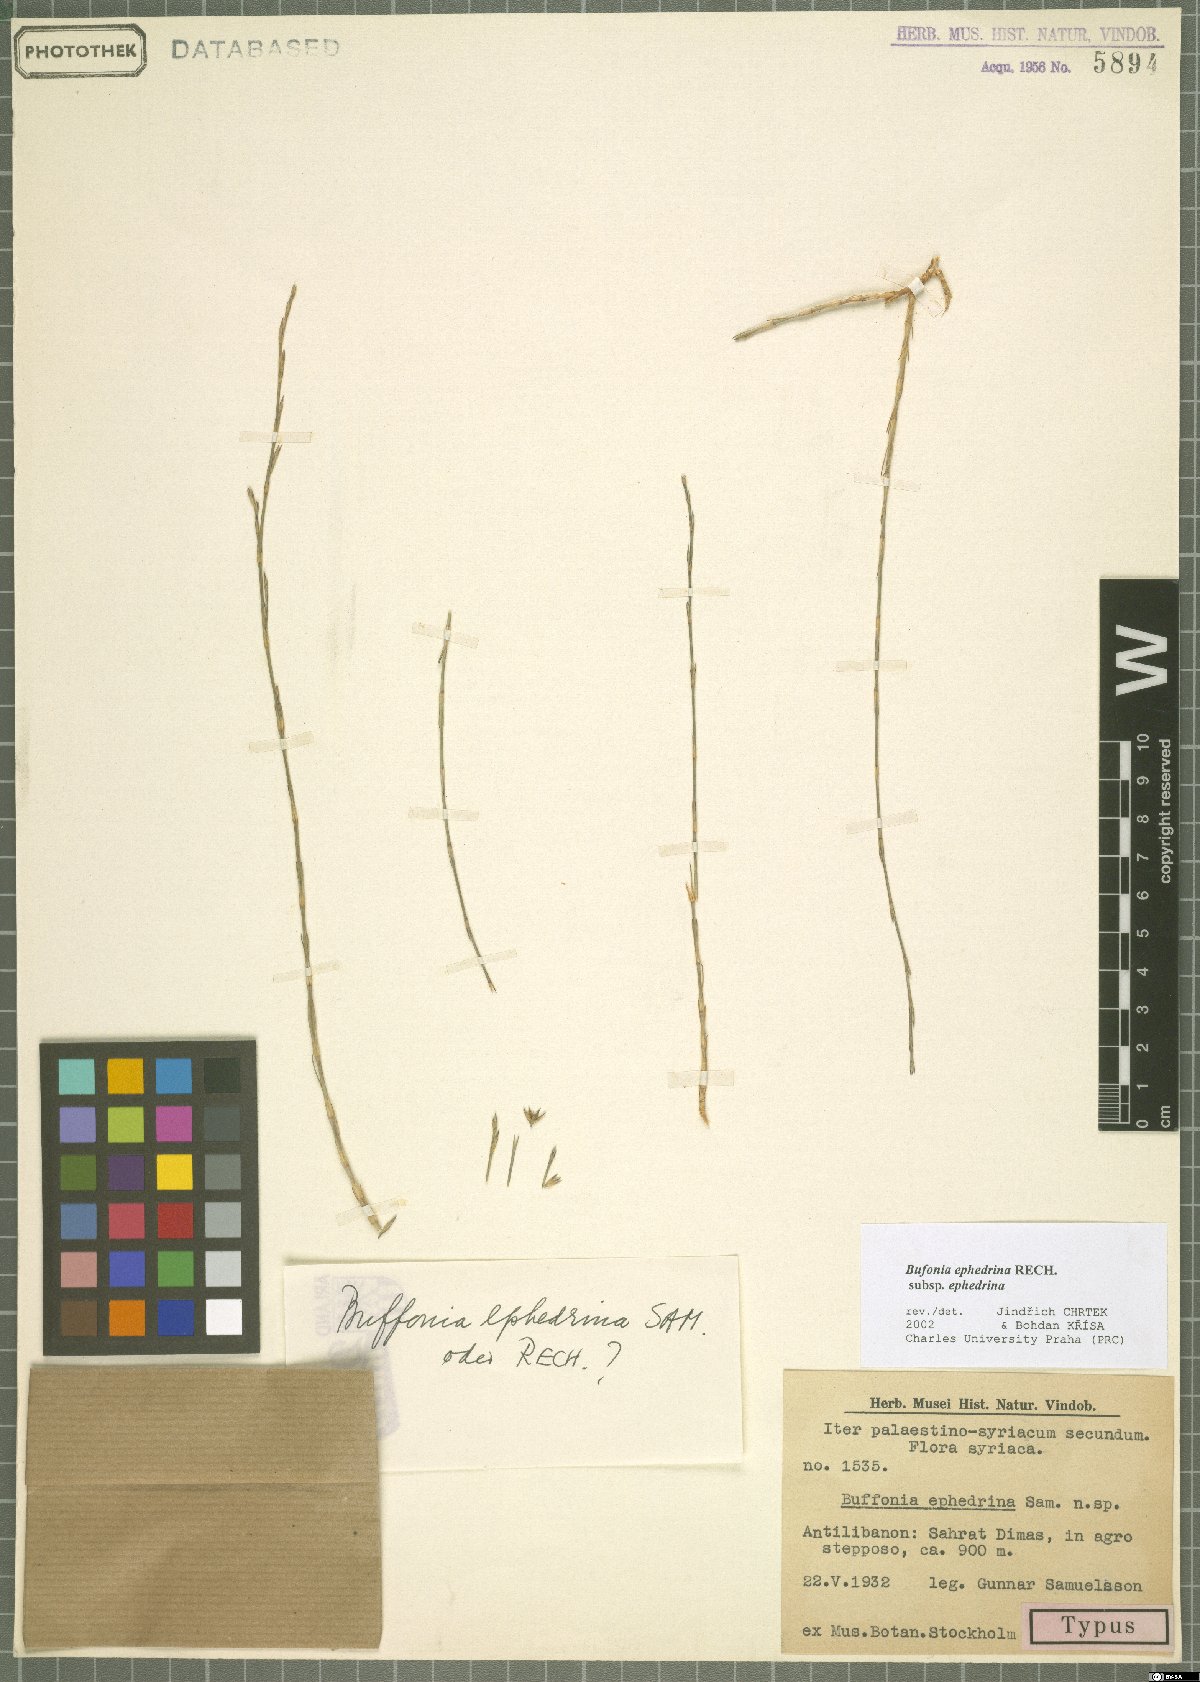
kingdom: Plantae
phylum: Tracheophyta
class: Magnoliopsida
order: Caryophyllales
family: Caryophyllaceae
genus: Bufonia
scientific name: Bufonia ephedrina
